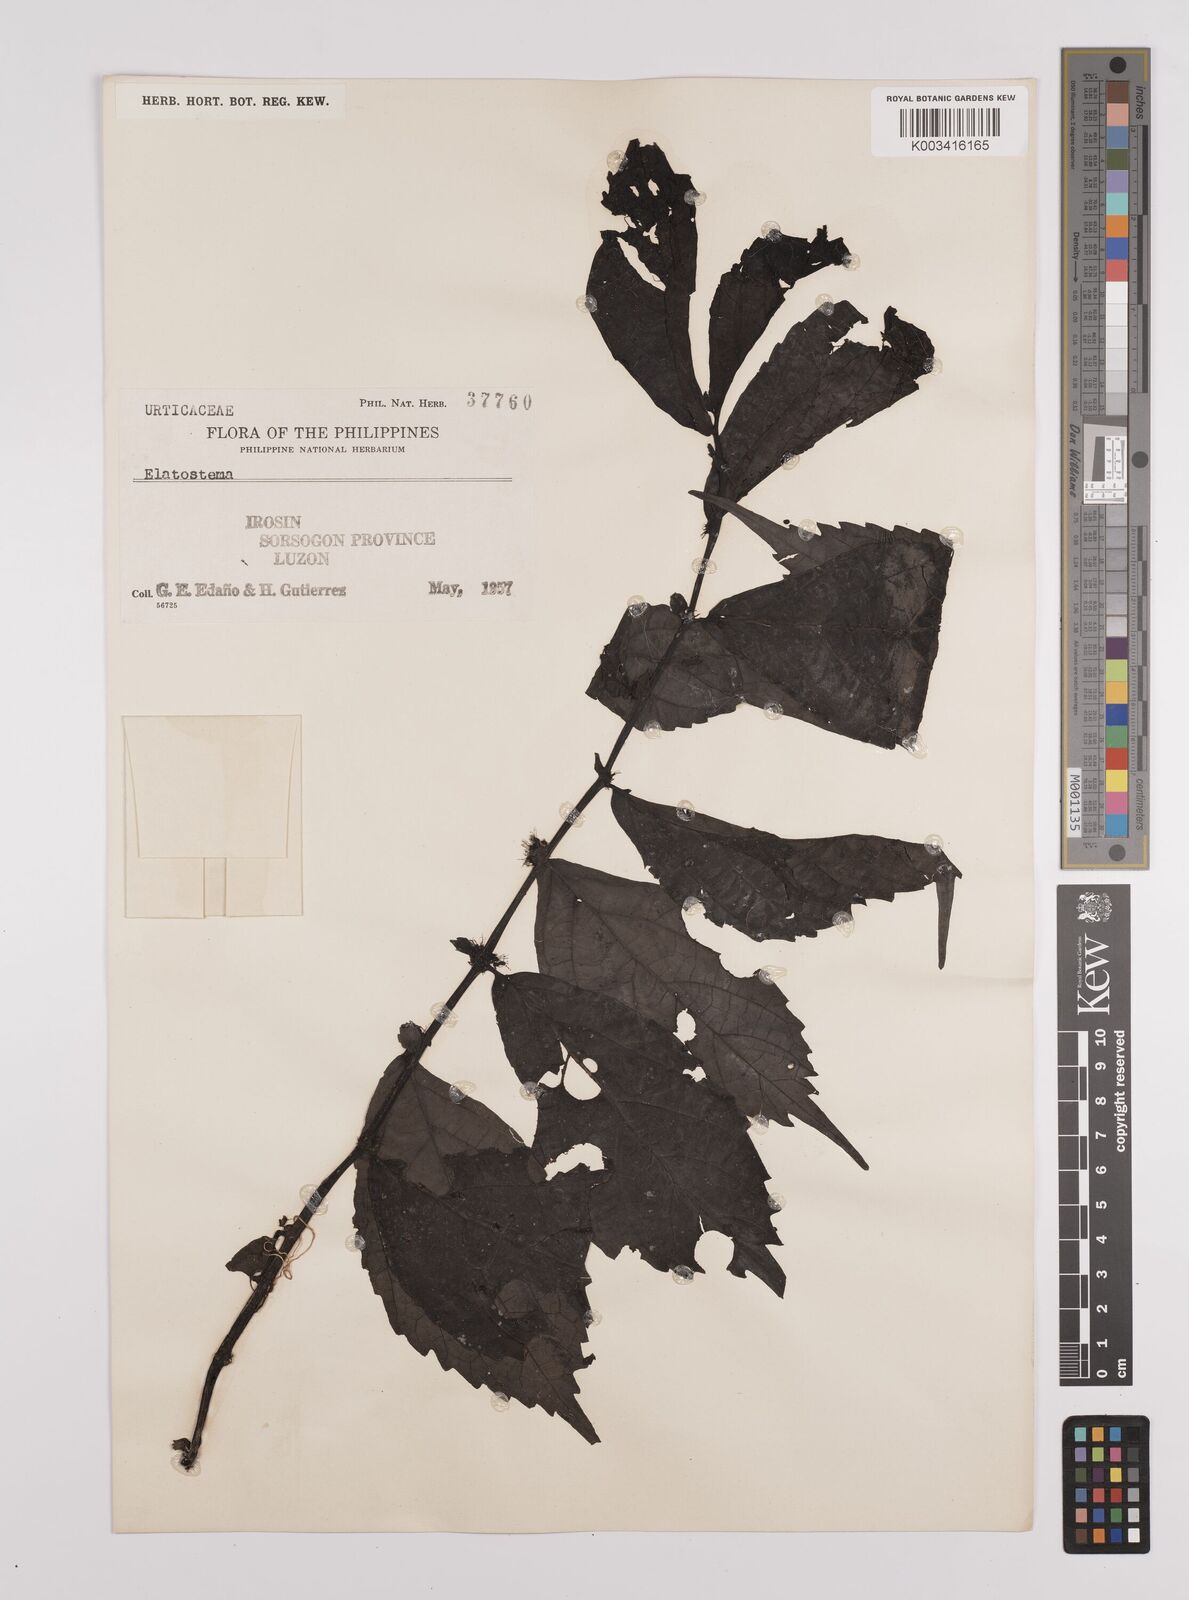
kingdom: Plantae
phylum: Tracheophyta
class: Magnoliopsida
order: Rosales
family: Urticaceae
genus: Elatostema
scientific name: Elatostema
